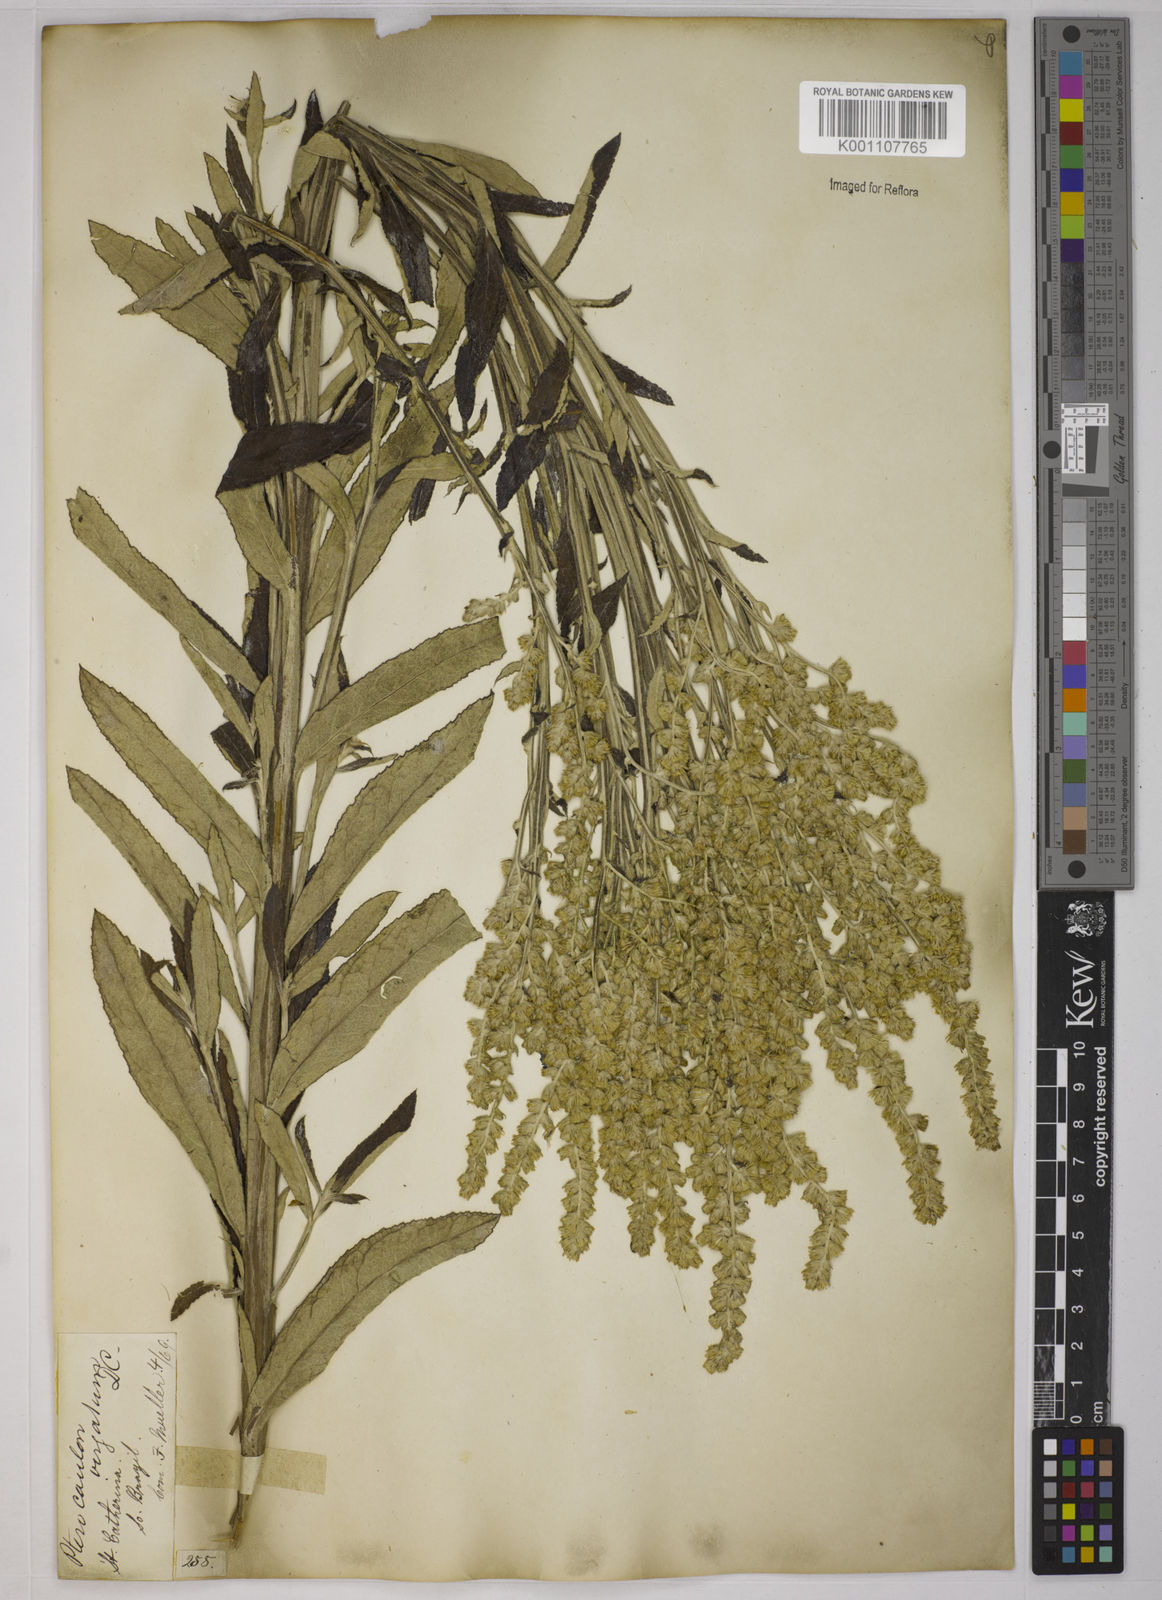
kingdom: Plantae
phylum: Tracheophyta
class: Magnoliopsida
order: Asterales
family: Asteraceae
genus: Pterocaulon
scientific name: Pterocaulon alopecuroides
